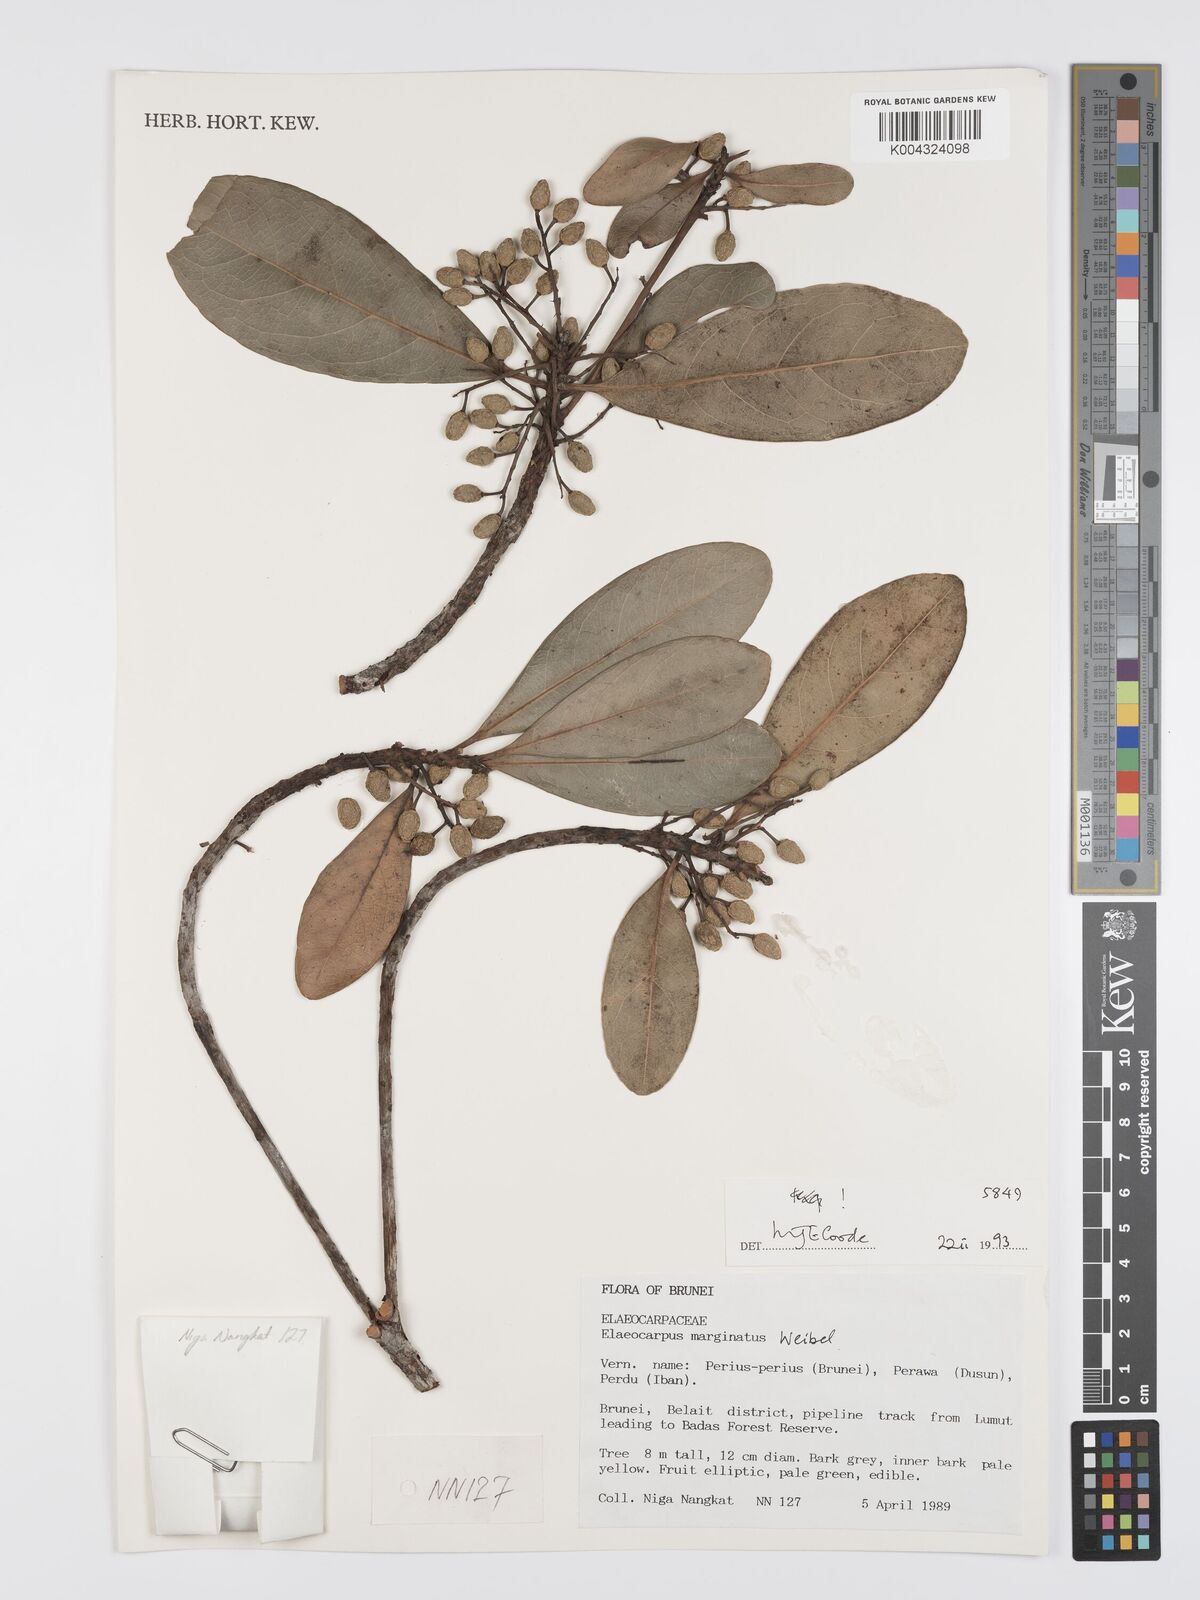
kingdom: Plantae
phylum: Tracheophyta
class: Magnoliopsida
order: Oxalidales
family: Elaeocarpaceae
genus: Elaeocarpus
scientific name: Elaeocarpus marginatus
